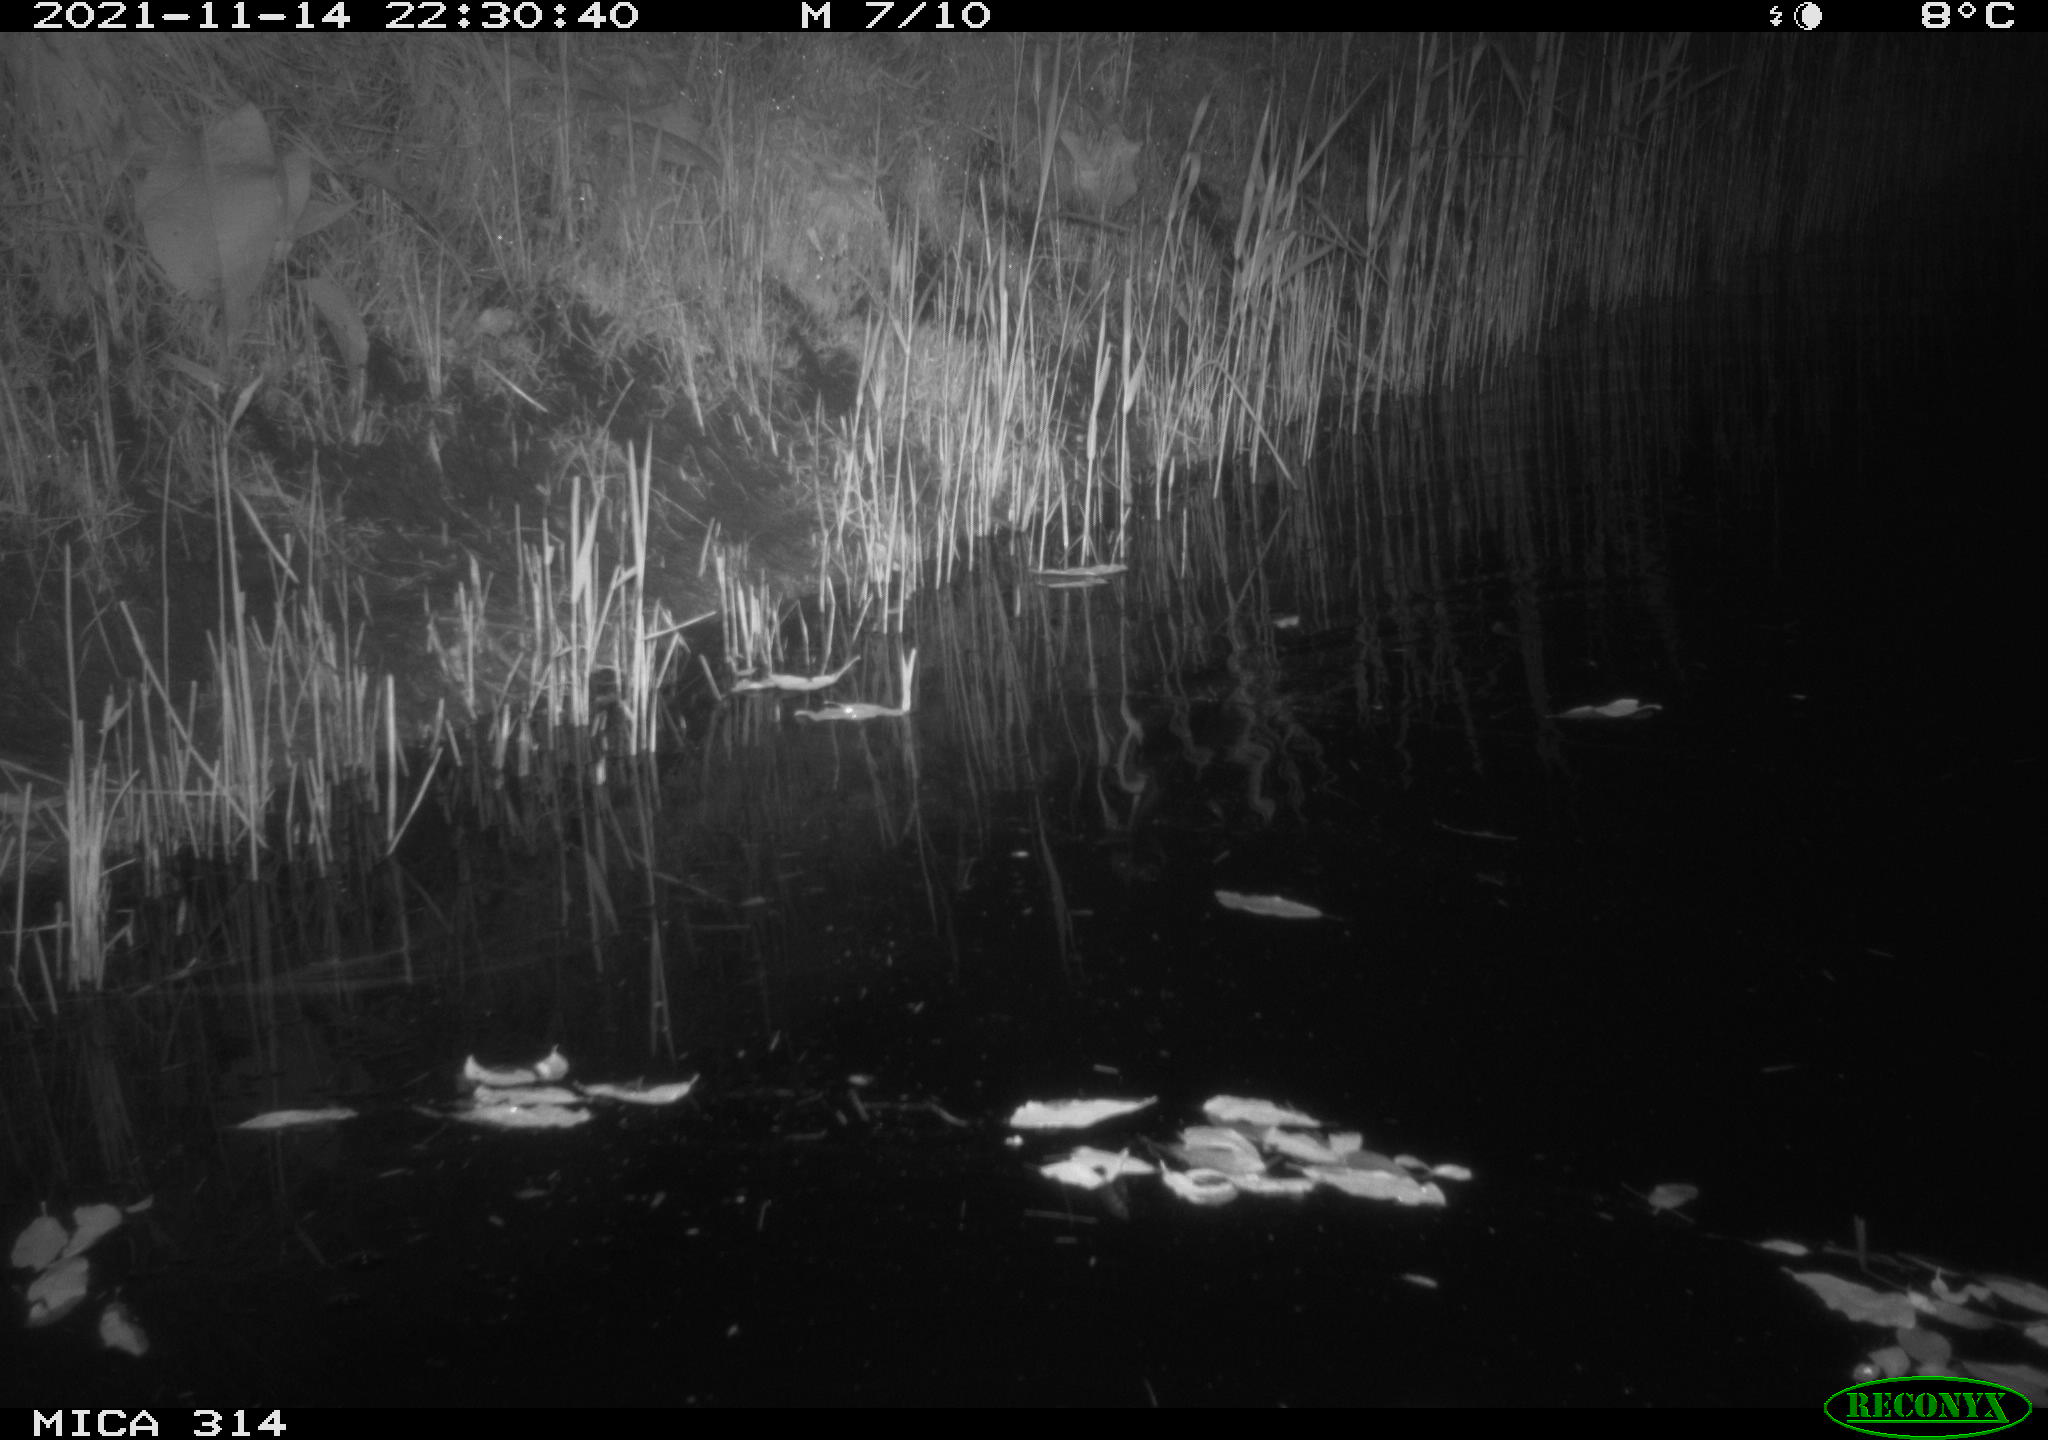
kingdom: Animalia
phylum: Chordata
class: Mammalia
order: Rodentia
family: Muridae
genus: Rattus
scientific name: Rattus norvegicus
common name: Brown rat
